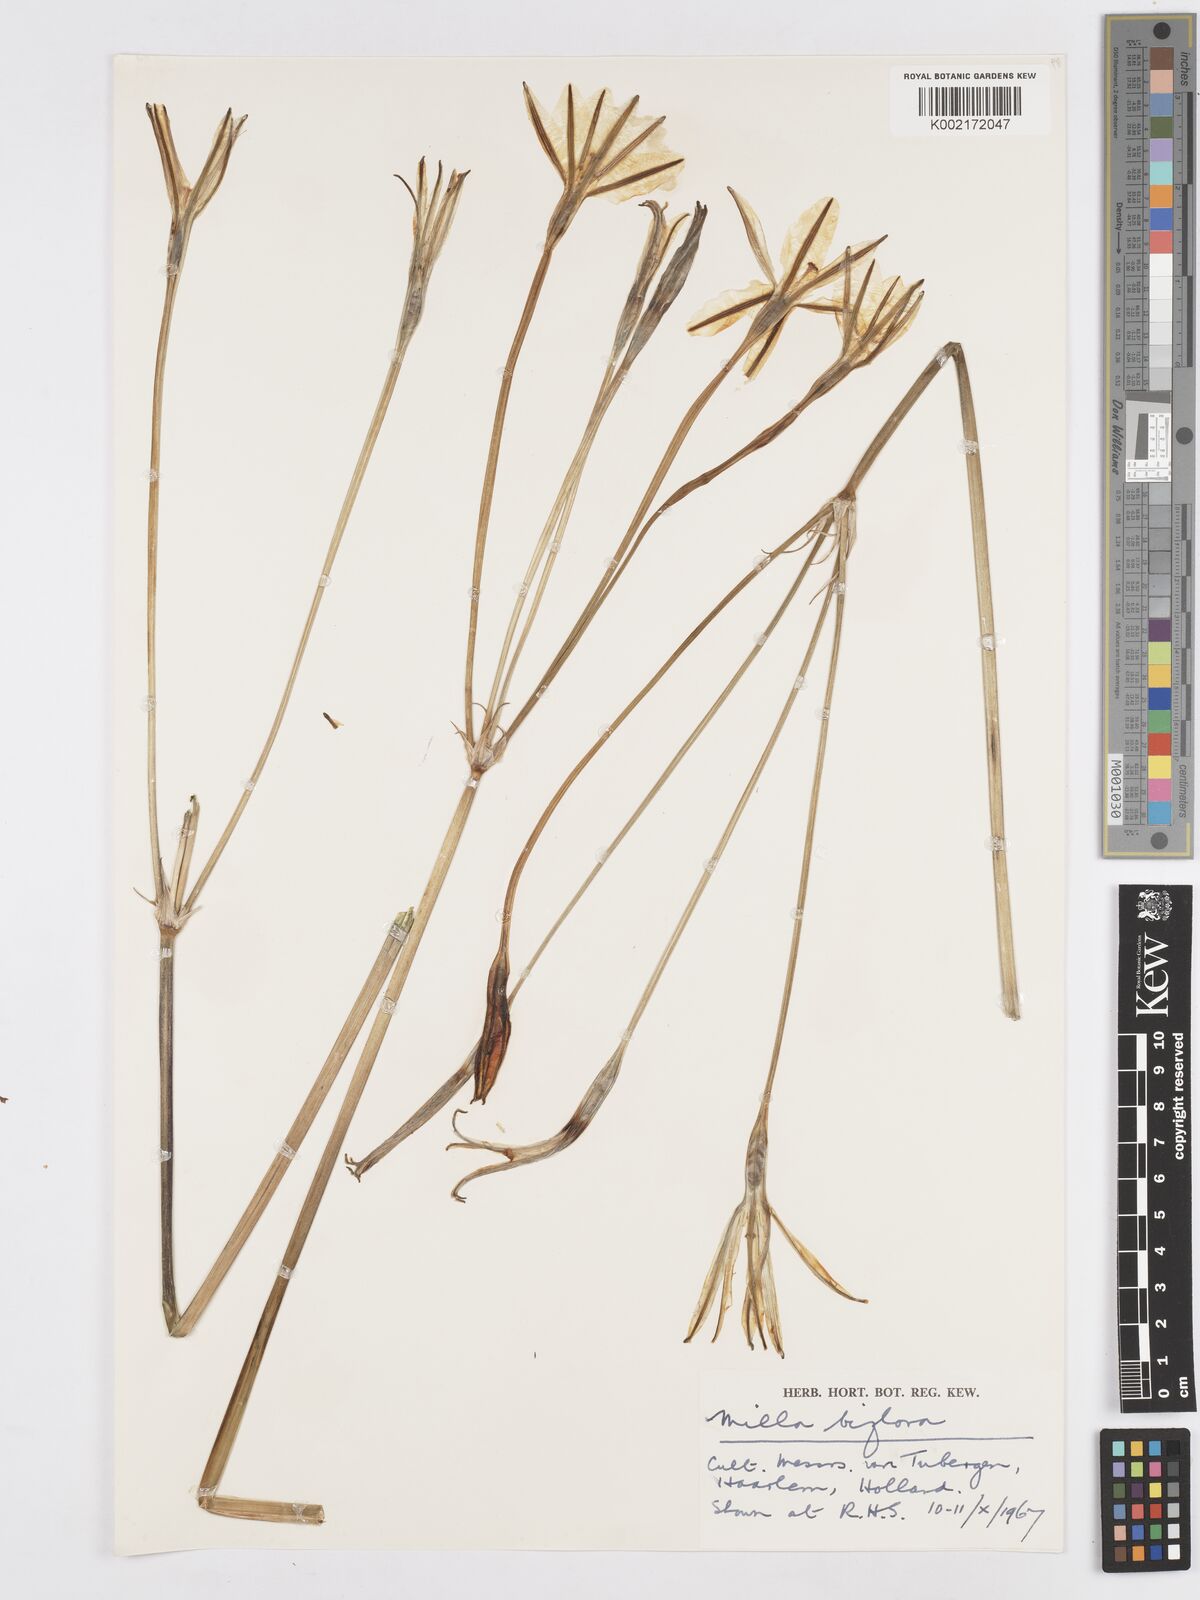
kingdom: Plantae
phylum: Tracheophyta
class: Liliopsida
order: Asparagales
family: Asparagaceae
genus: Milla
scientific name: Milla biflora
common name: Mexican-star
